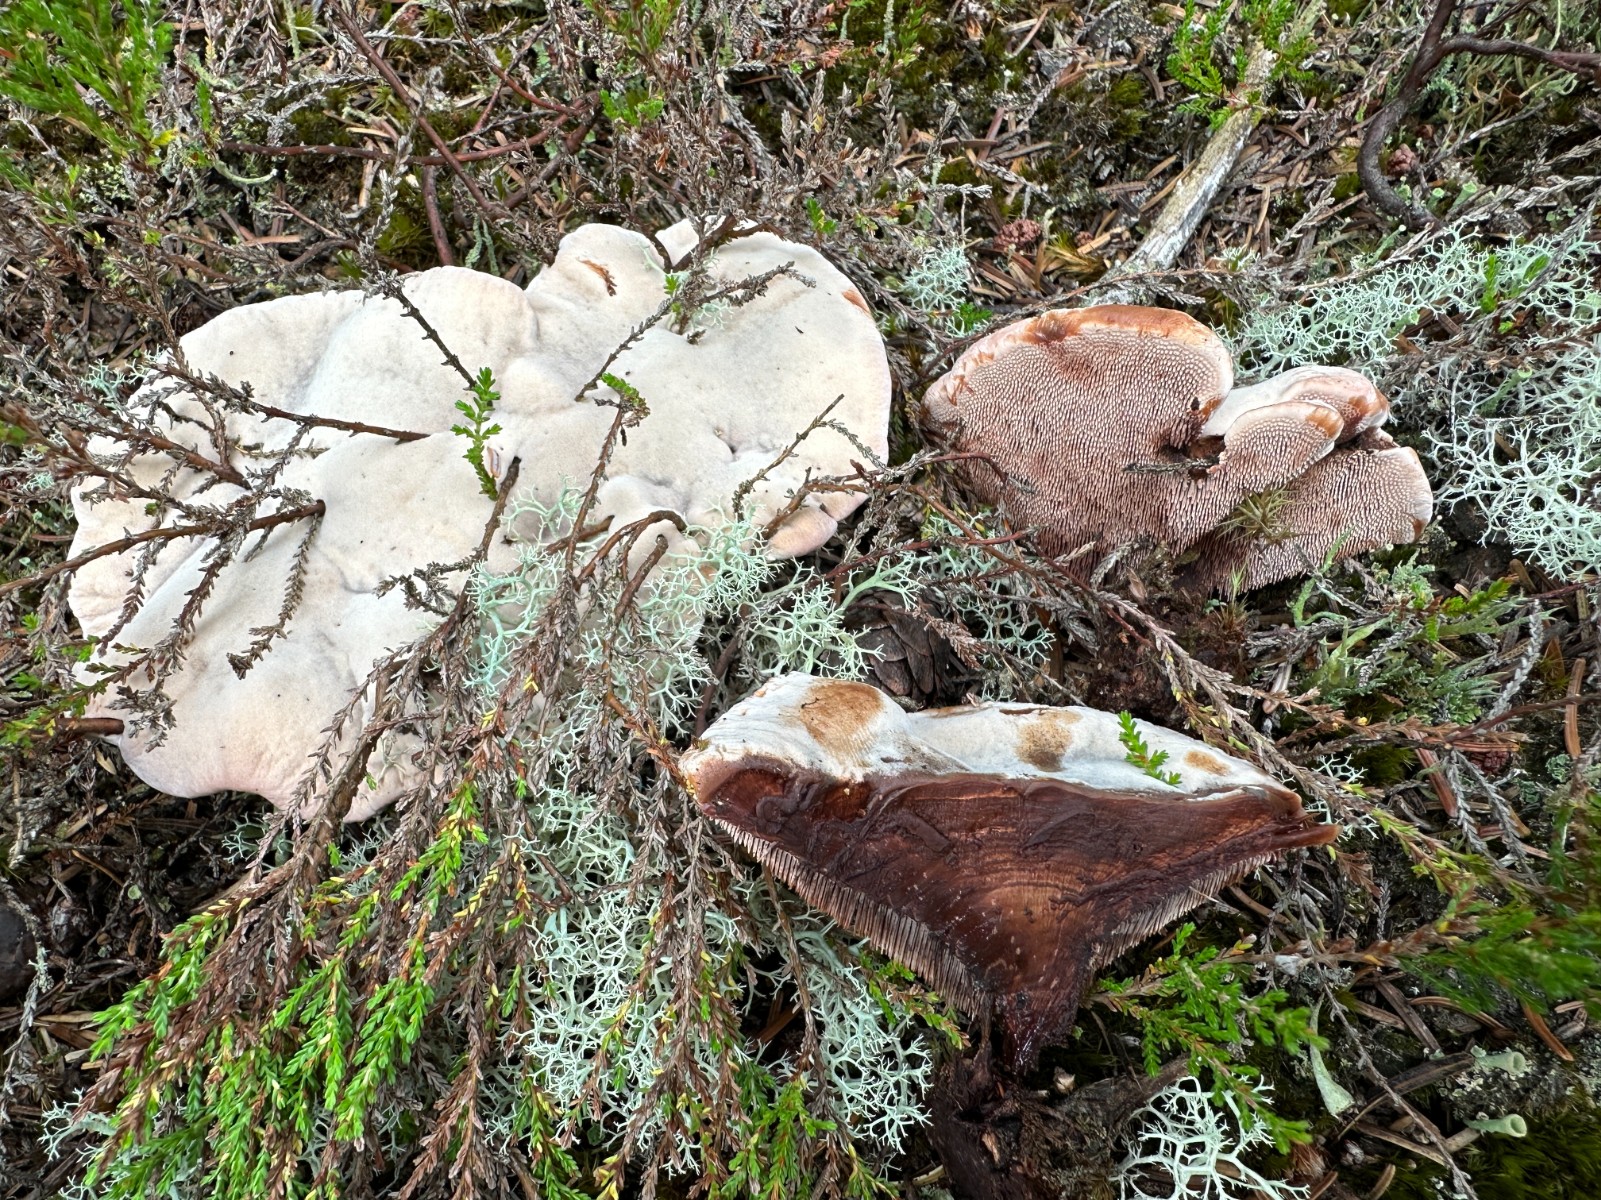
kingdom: Fungi
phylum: Basidiomycota
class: Agaricomycetes
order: Thelephorales
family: Bankeraceae
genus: Hydnellum
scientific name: Hydnellum ferrugineum
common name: rust-korkpigsvamp
